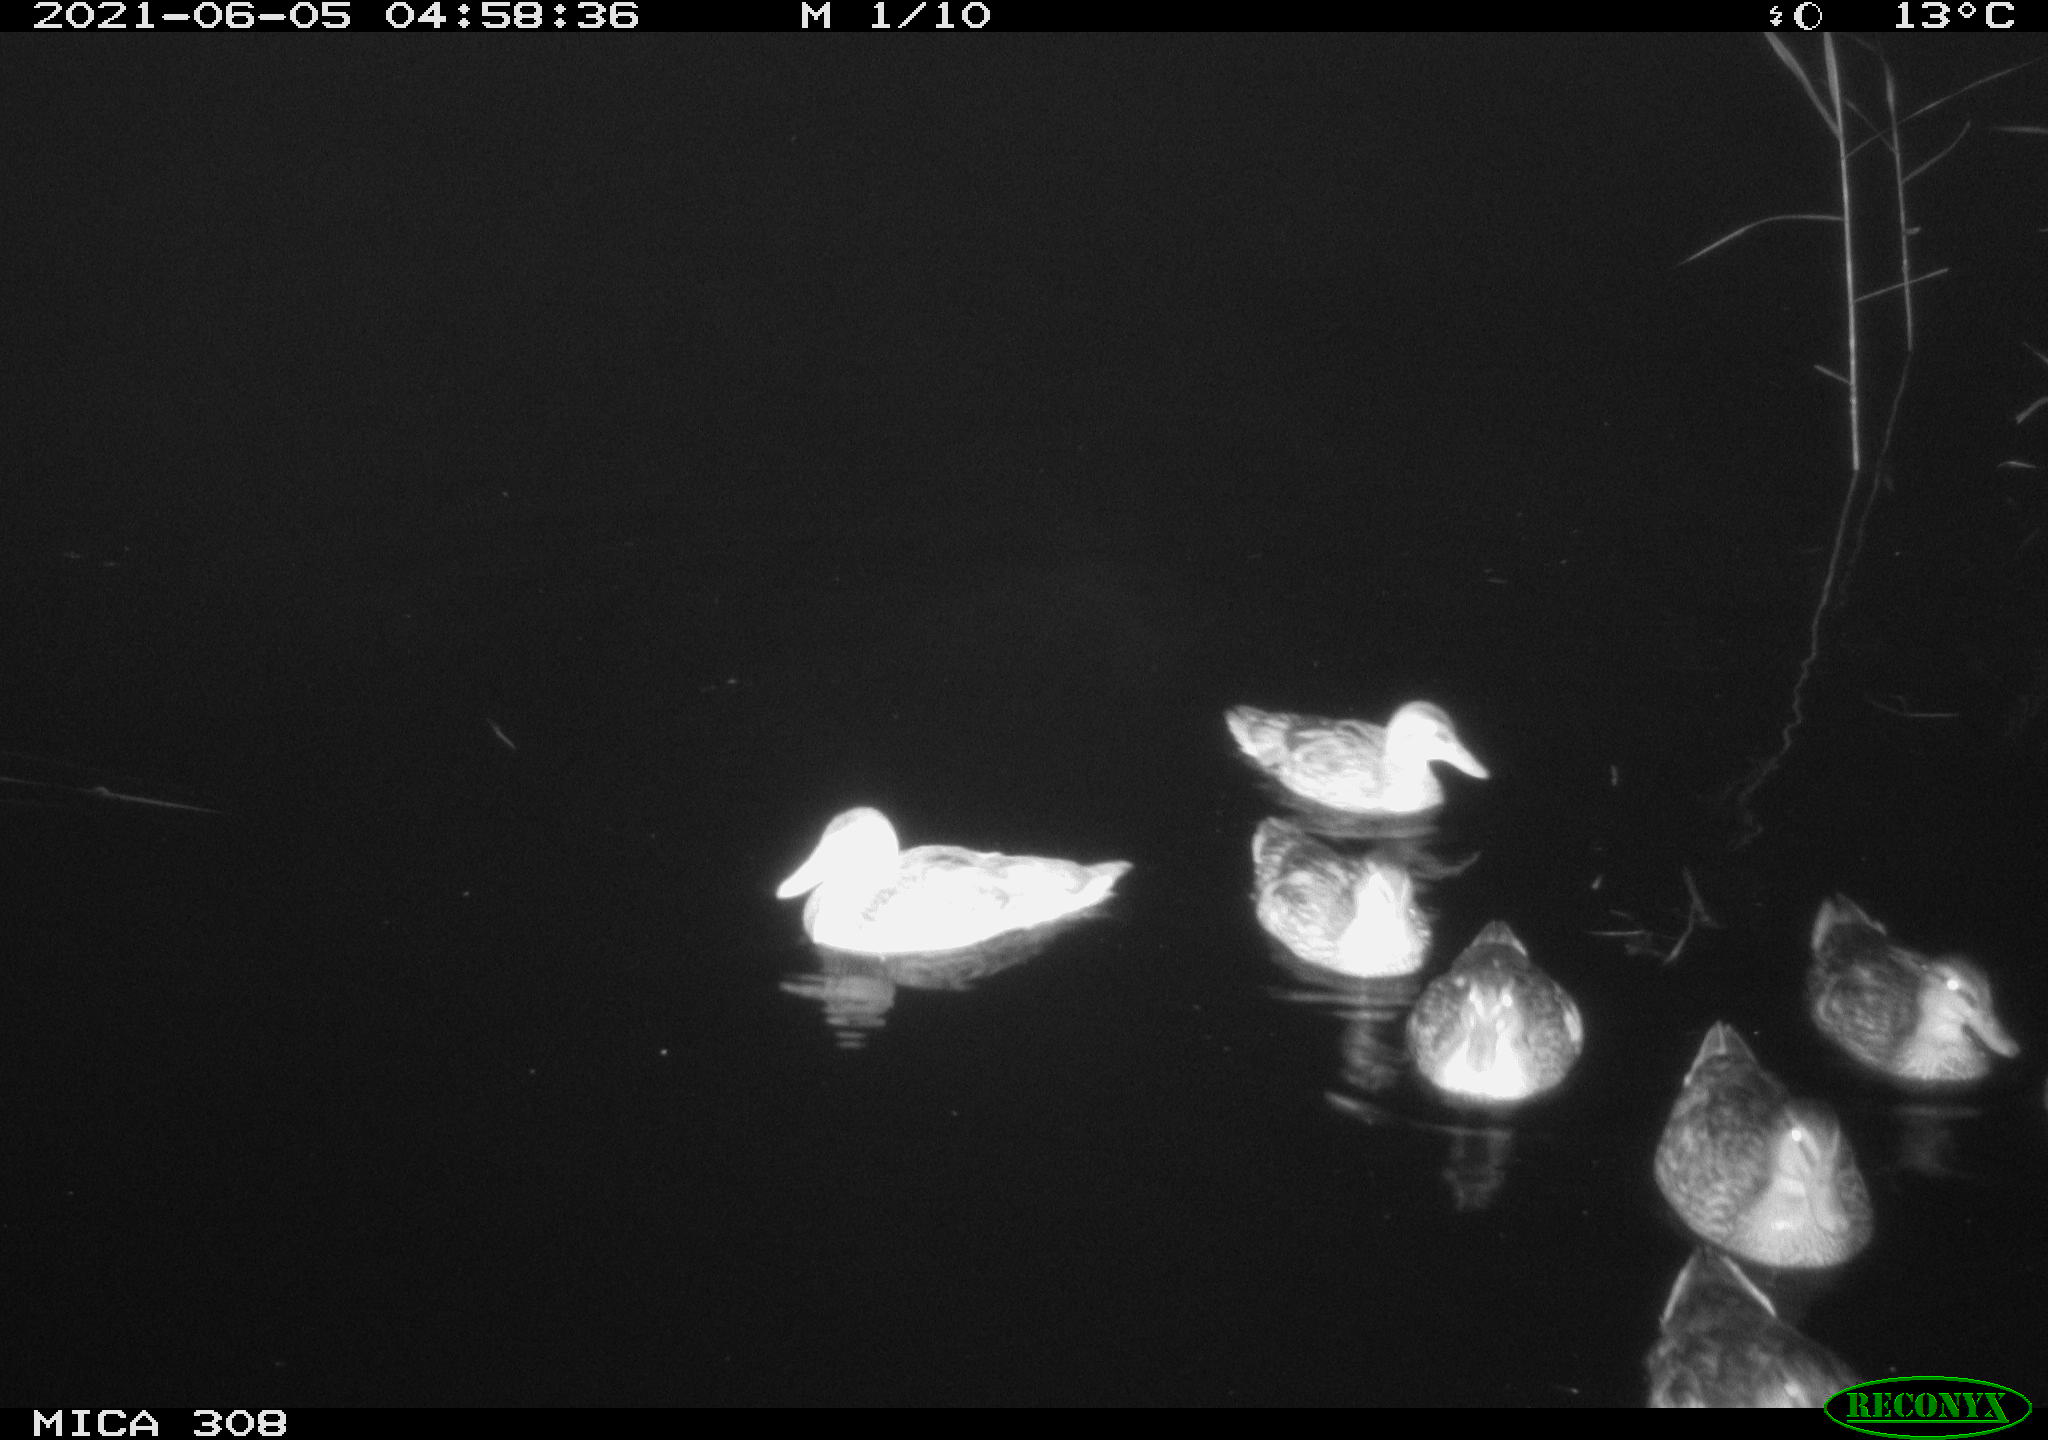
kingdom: Animalia
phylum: Chordata
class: Aves
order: Anseriformes
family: Anatidae
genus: Anas
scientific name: Anas platyrhynchos
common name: Mallard
